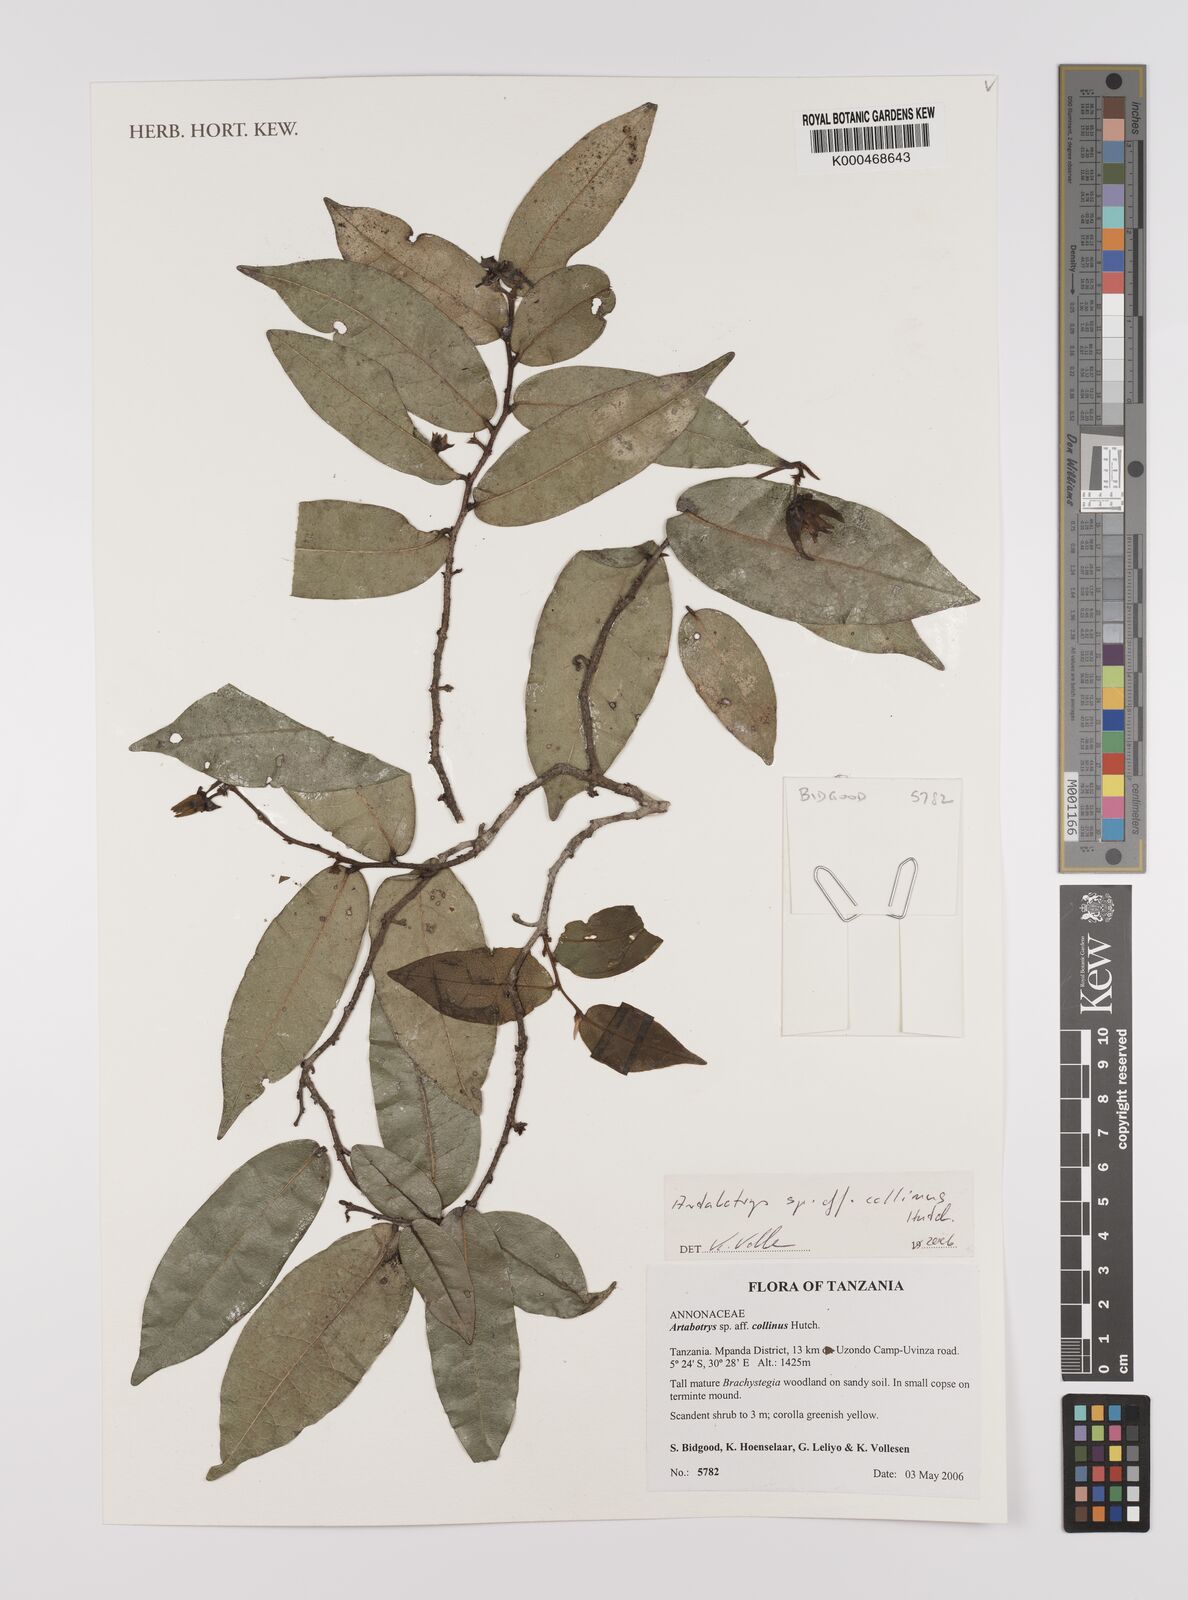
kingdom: Plantae
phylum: Tracheophyta
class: Magnoliopsida
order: Magnoliales
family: Annonaceae
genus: Artabotrys
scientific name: Artabotrys collinus
